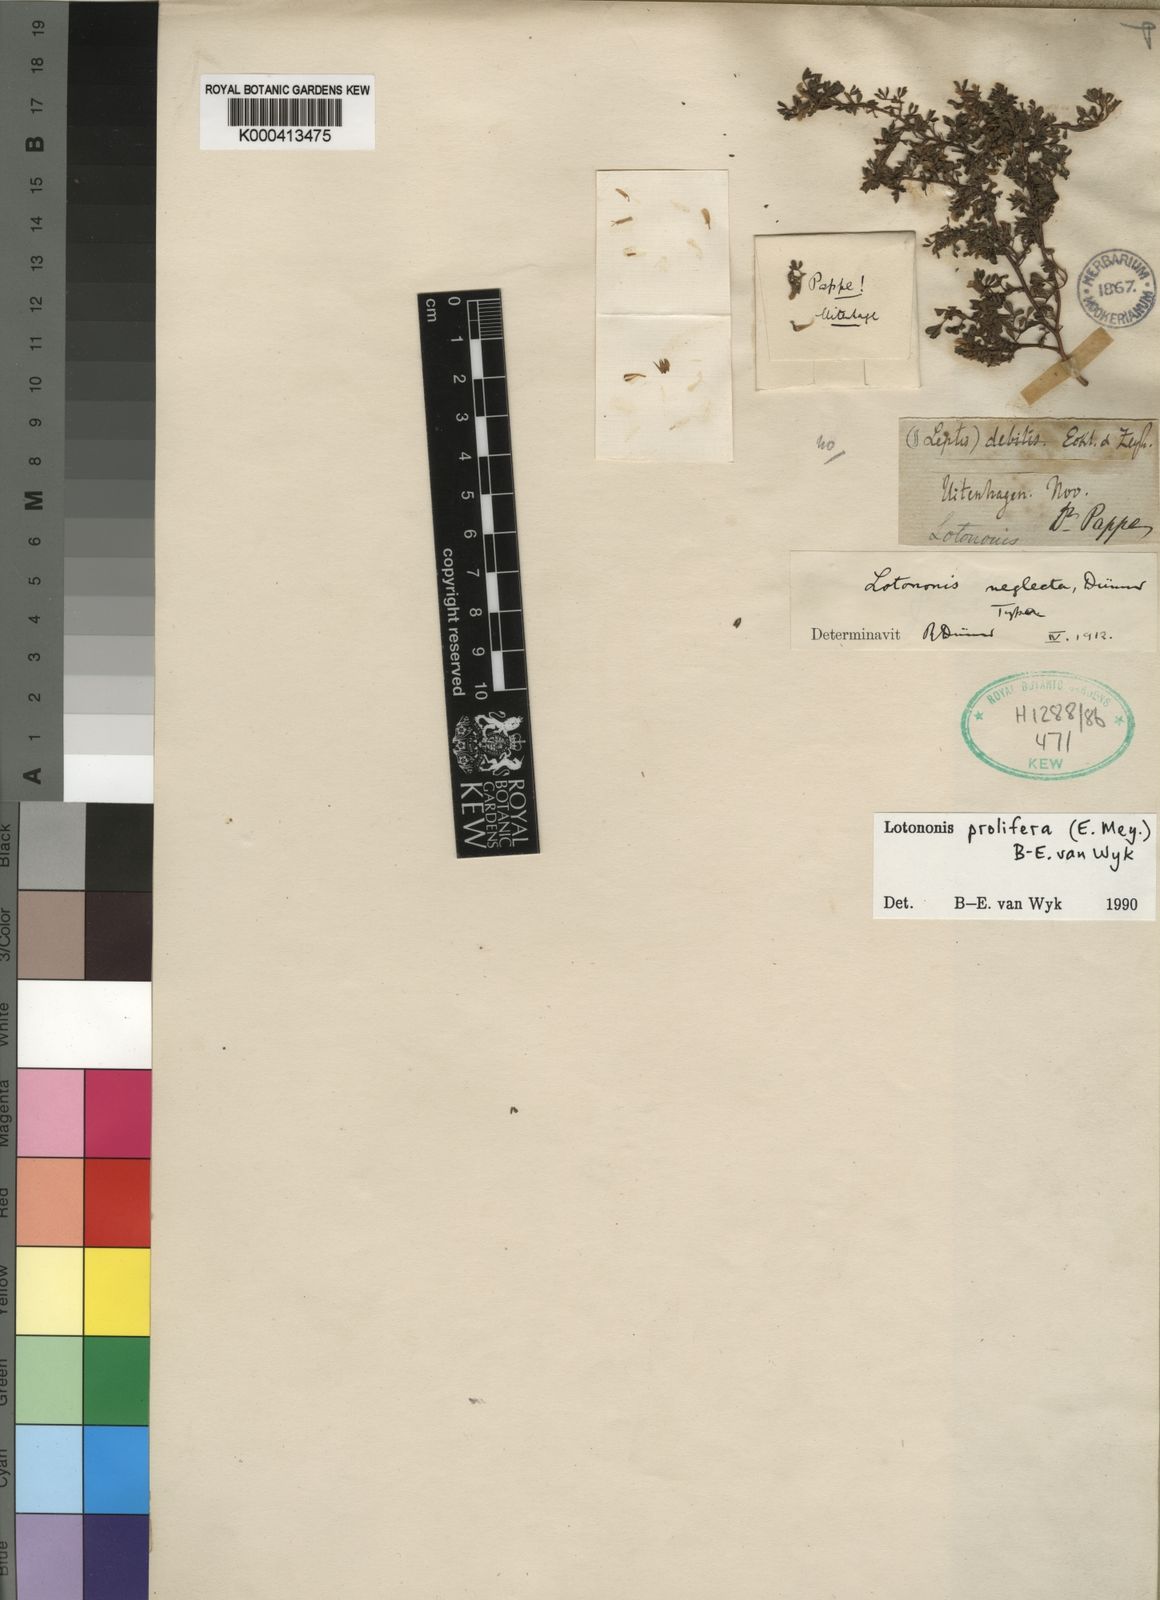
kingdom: Plantae
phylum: Tracheophyta
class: Magnoliopsida
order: Fabales
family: Fabaceae
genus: Lotononis
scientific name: Lotononis prolifera
